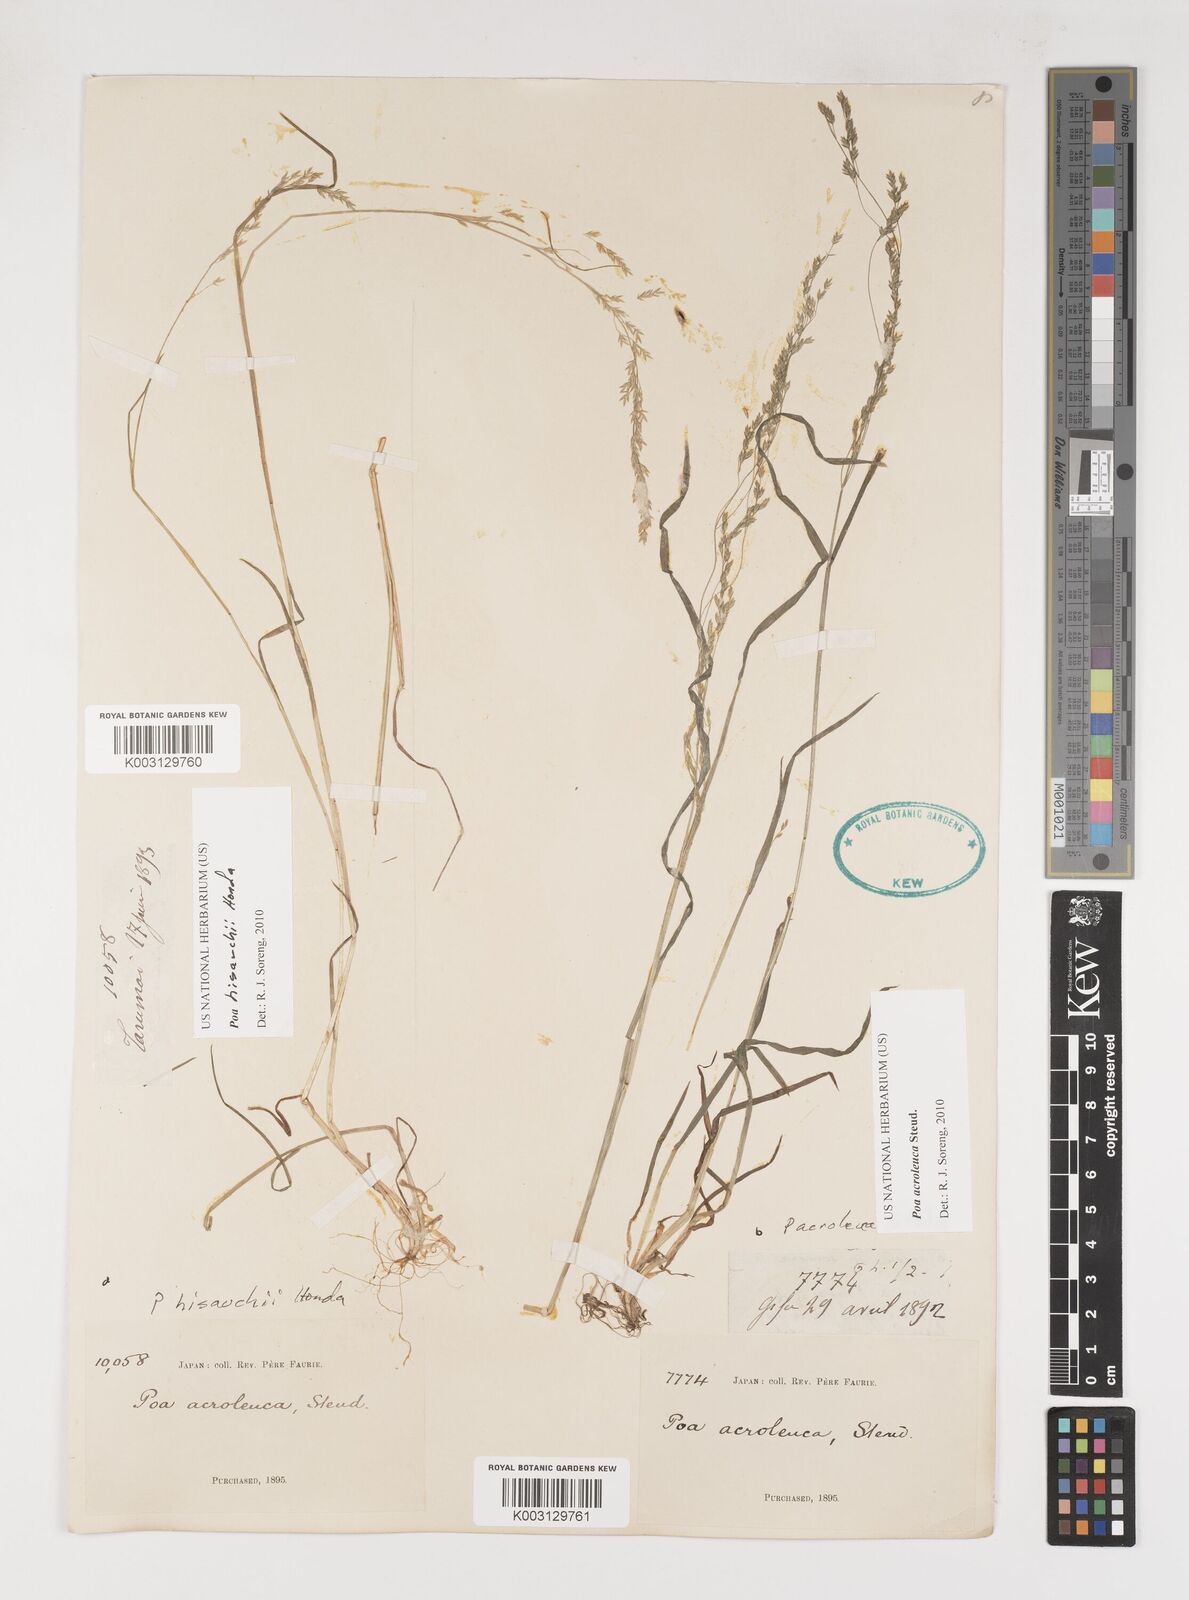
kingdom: Plantae
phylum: Tracheophyta
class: Liliopsida
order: Poales
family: Poaceae
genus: Poa
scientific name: Poa acroleuca
